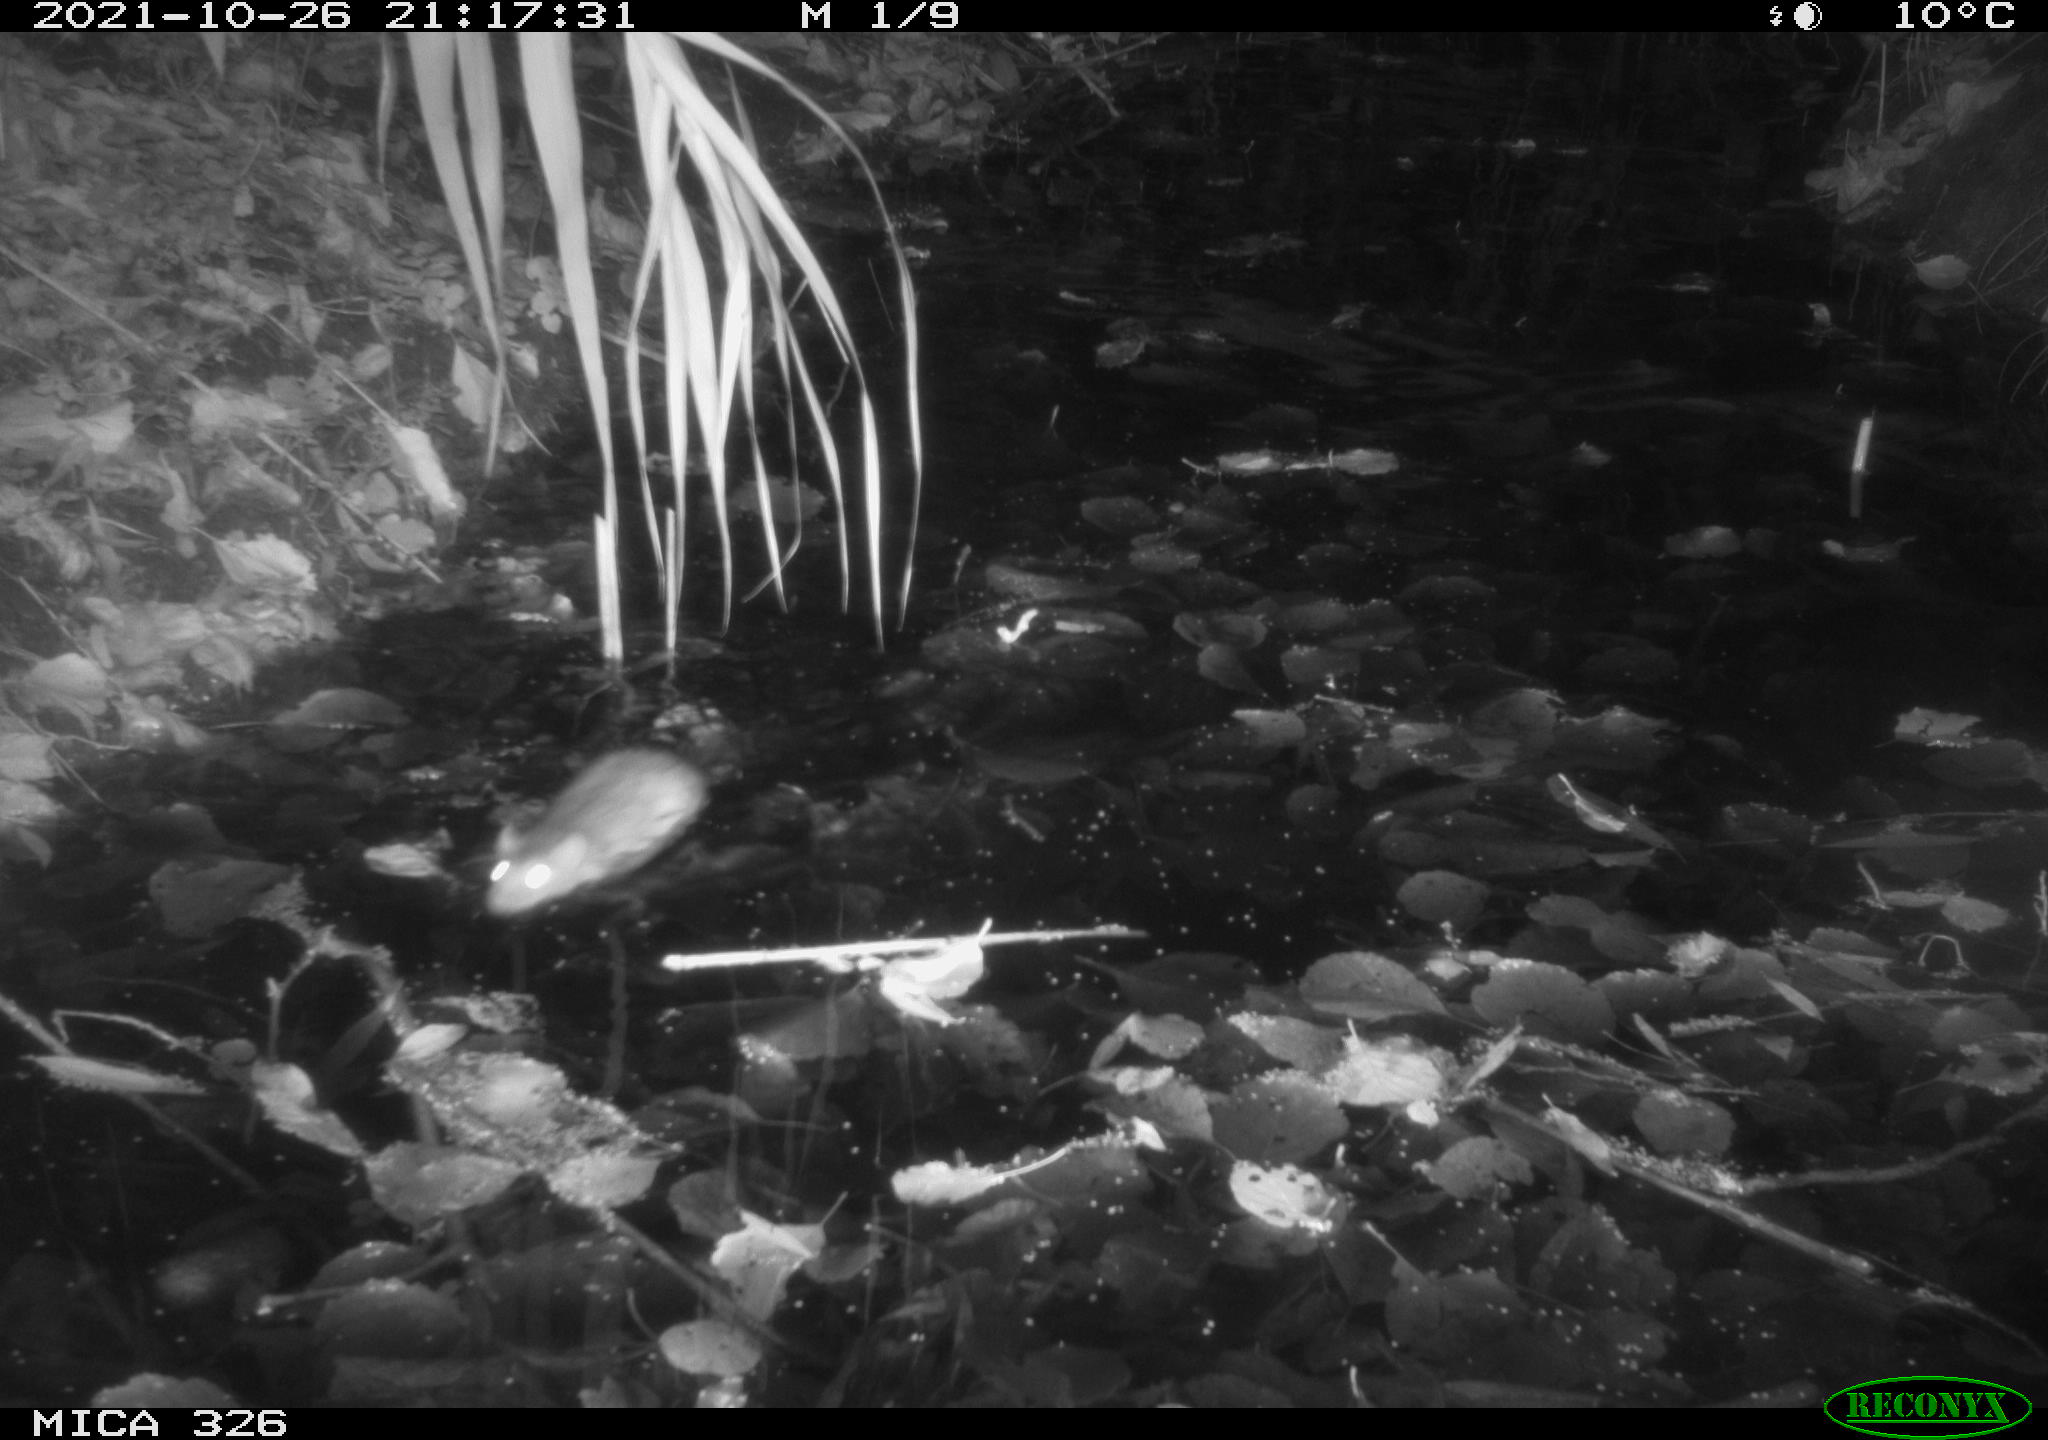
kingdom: Animalia
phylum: Chordata
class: Mammalia
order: Rodentia
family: Muridae
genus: Rattus
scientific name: Rattus norvegicus
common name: Brown rat
